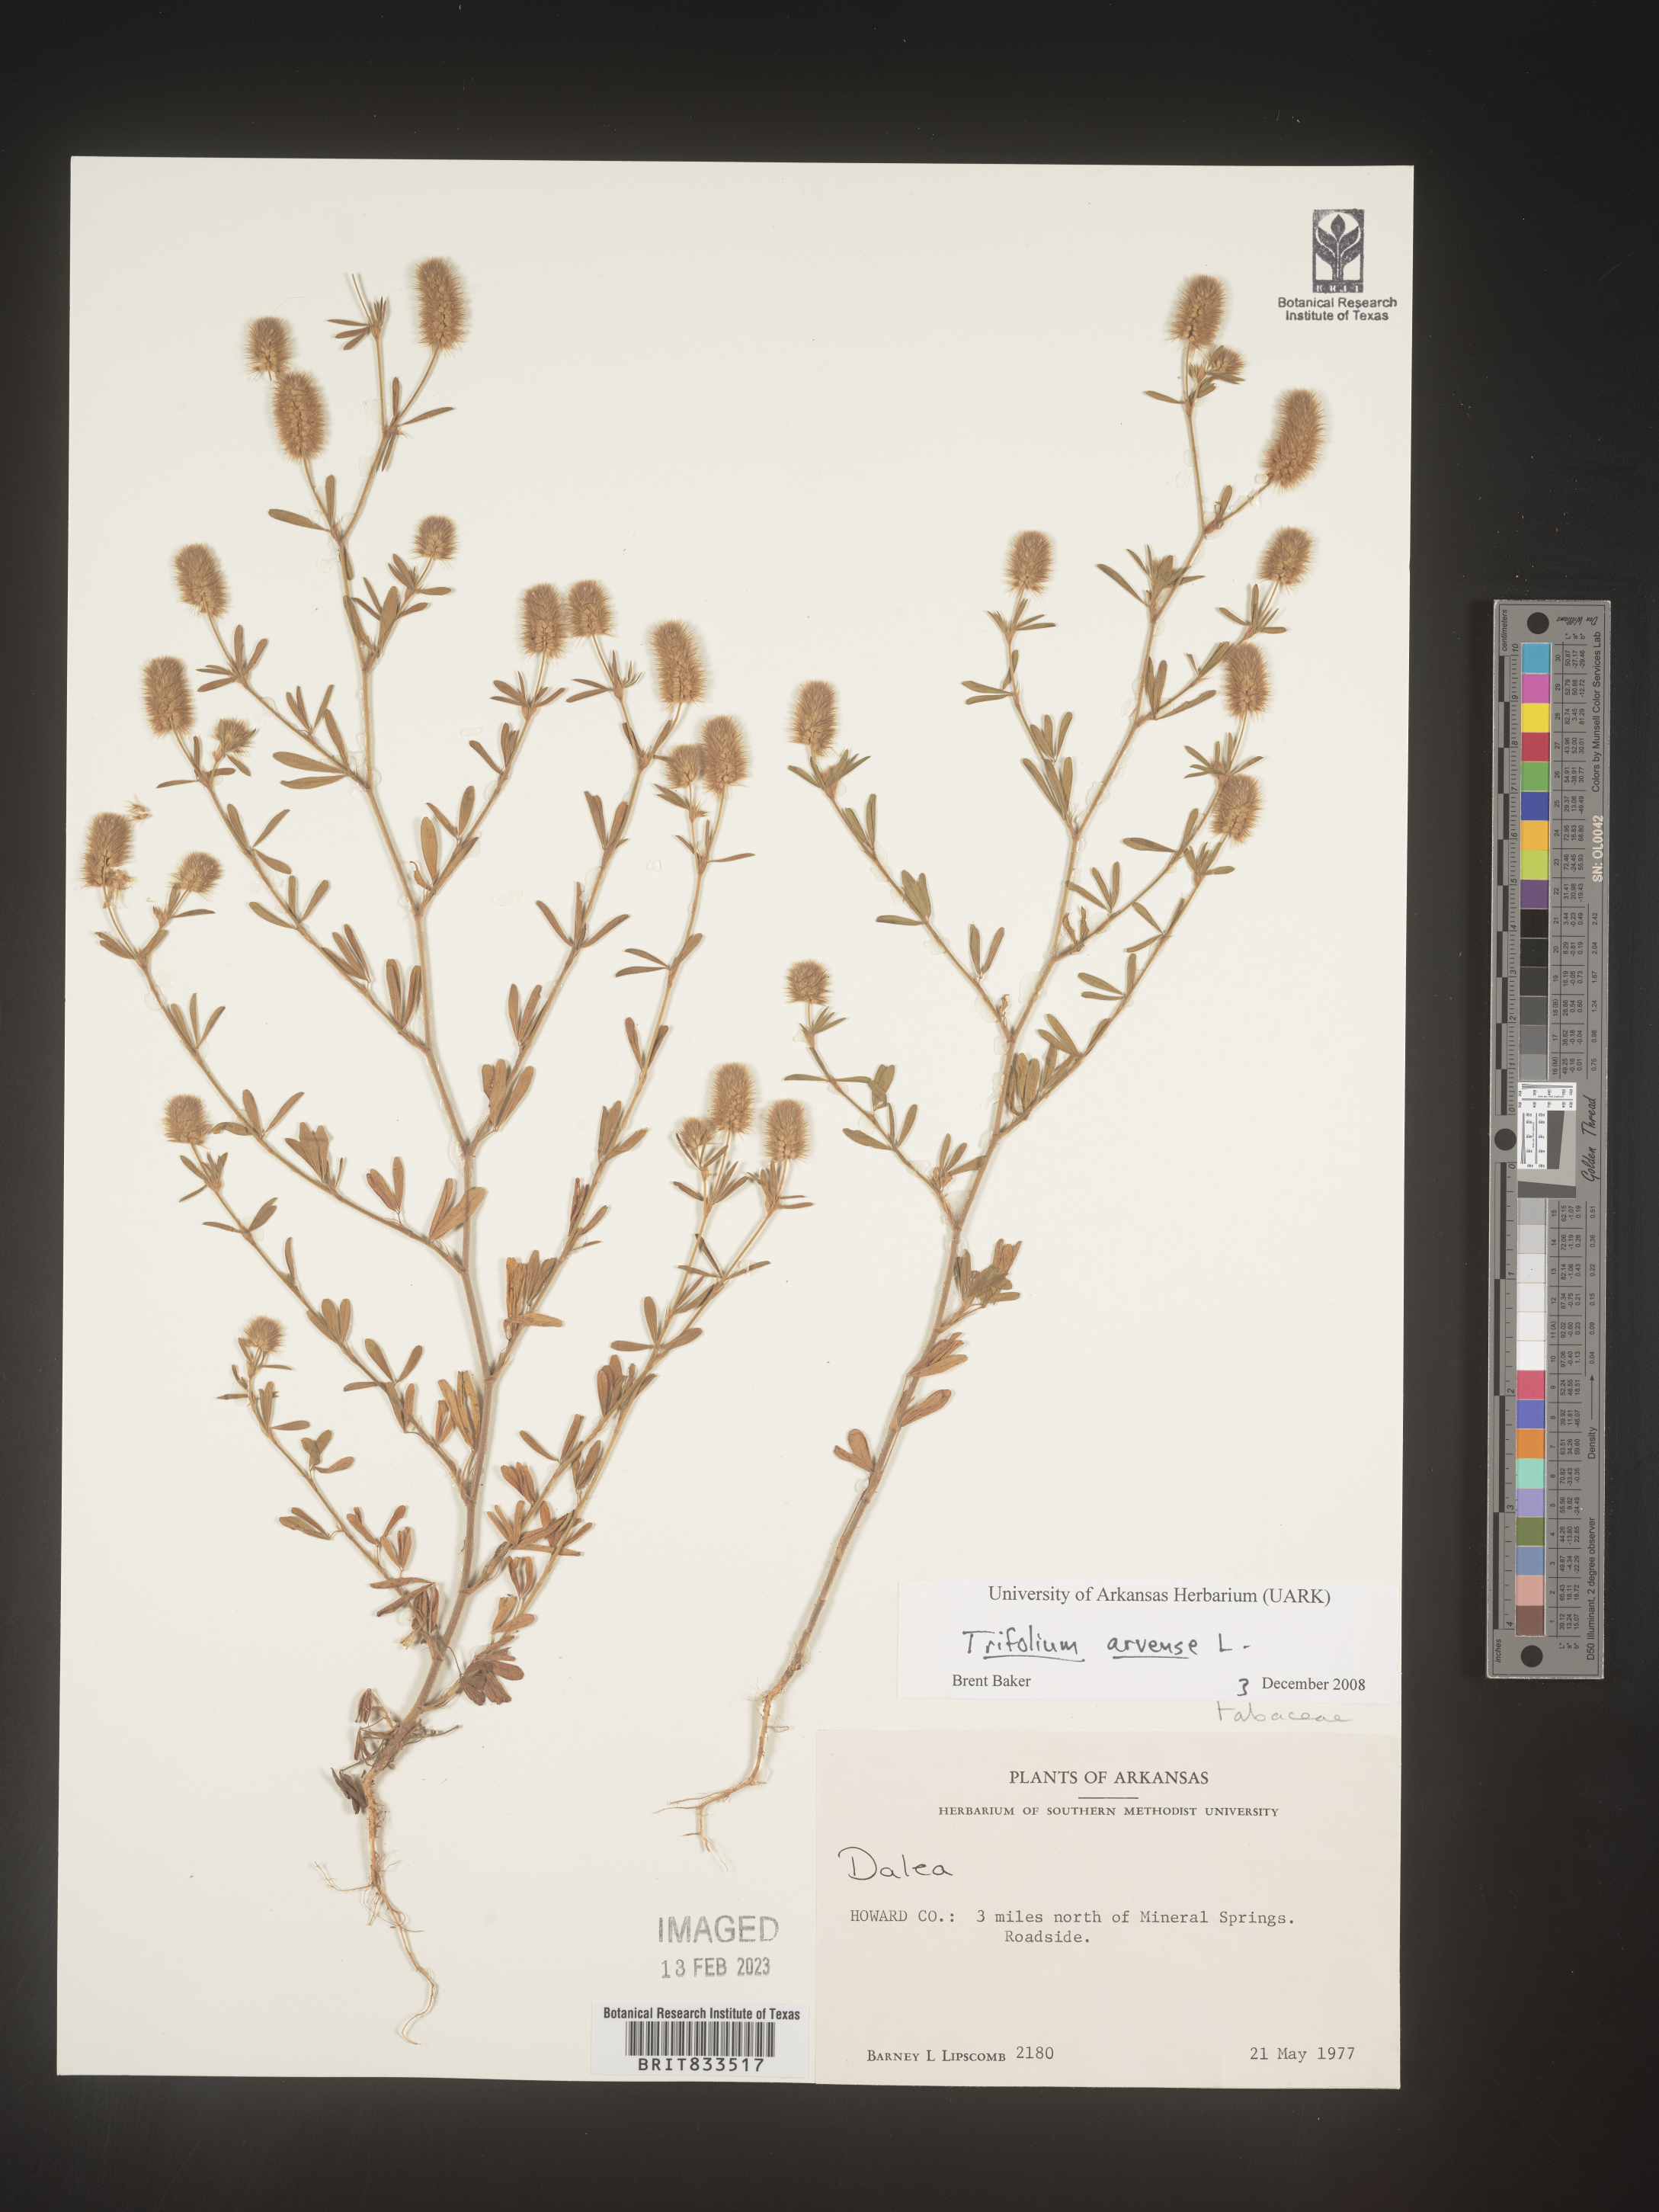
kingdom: Plantae
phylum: Tracheophyta
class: Magnoliopsida
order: Fabales
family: Fabaceae
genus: Trifolium
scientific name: Trifolium arvense
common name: Hare's-foot clover
